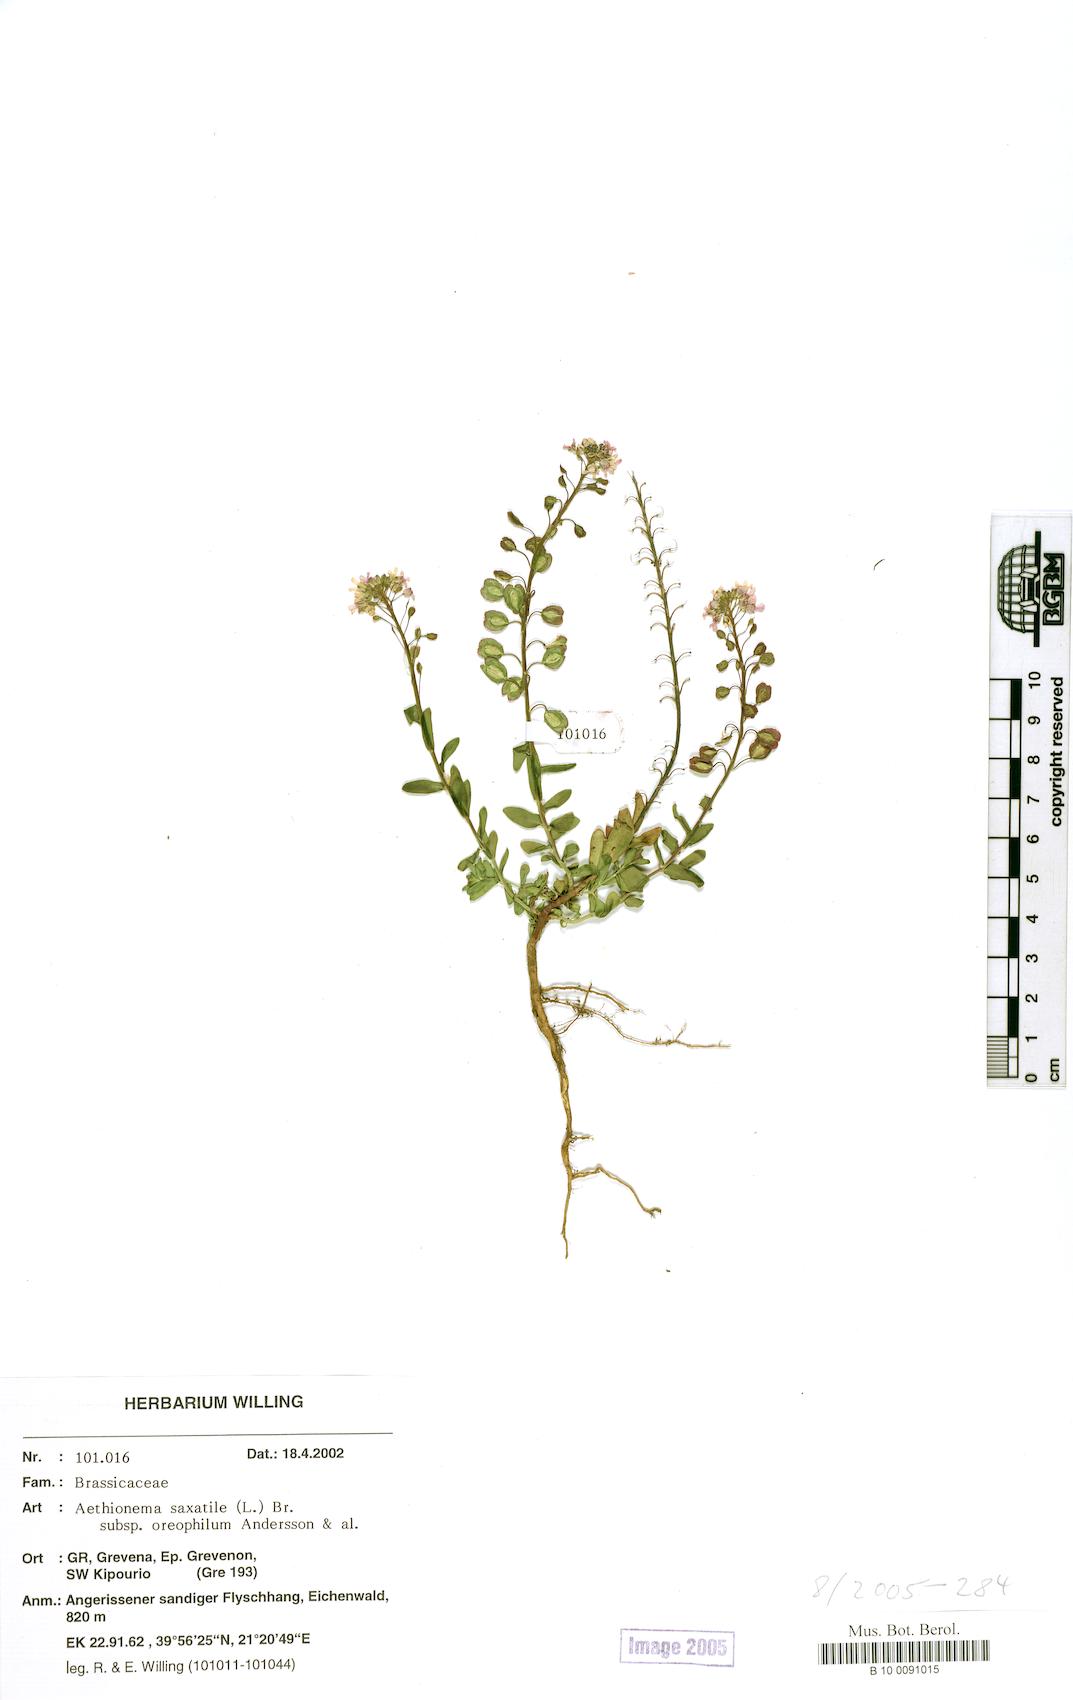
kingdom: Plantae
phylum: Tracheophyta
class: Magnoliopsida
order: Brassicales
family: Brassicaceae
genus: Aethionema
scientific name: Aethionema saxatile
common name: Burnt candytuft
